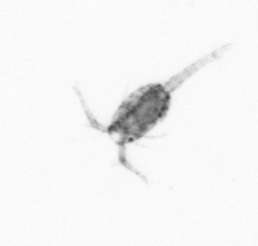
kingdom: Animalia
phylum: Arthropoda
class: Copepoda
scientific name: Copepoda
